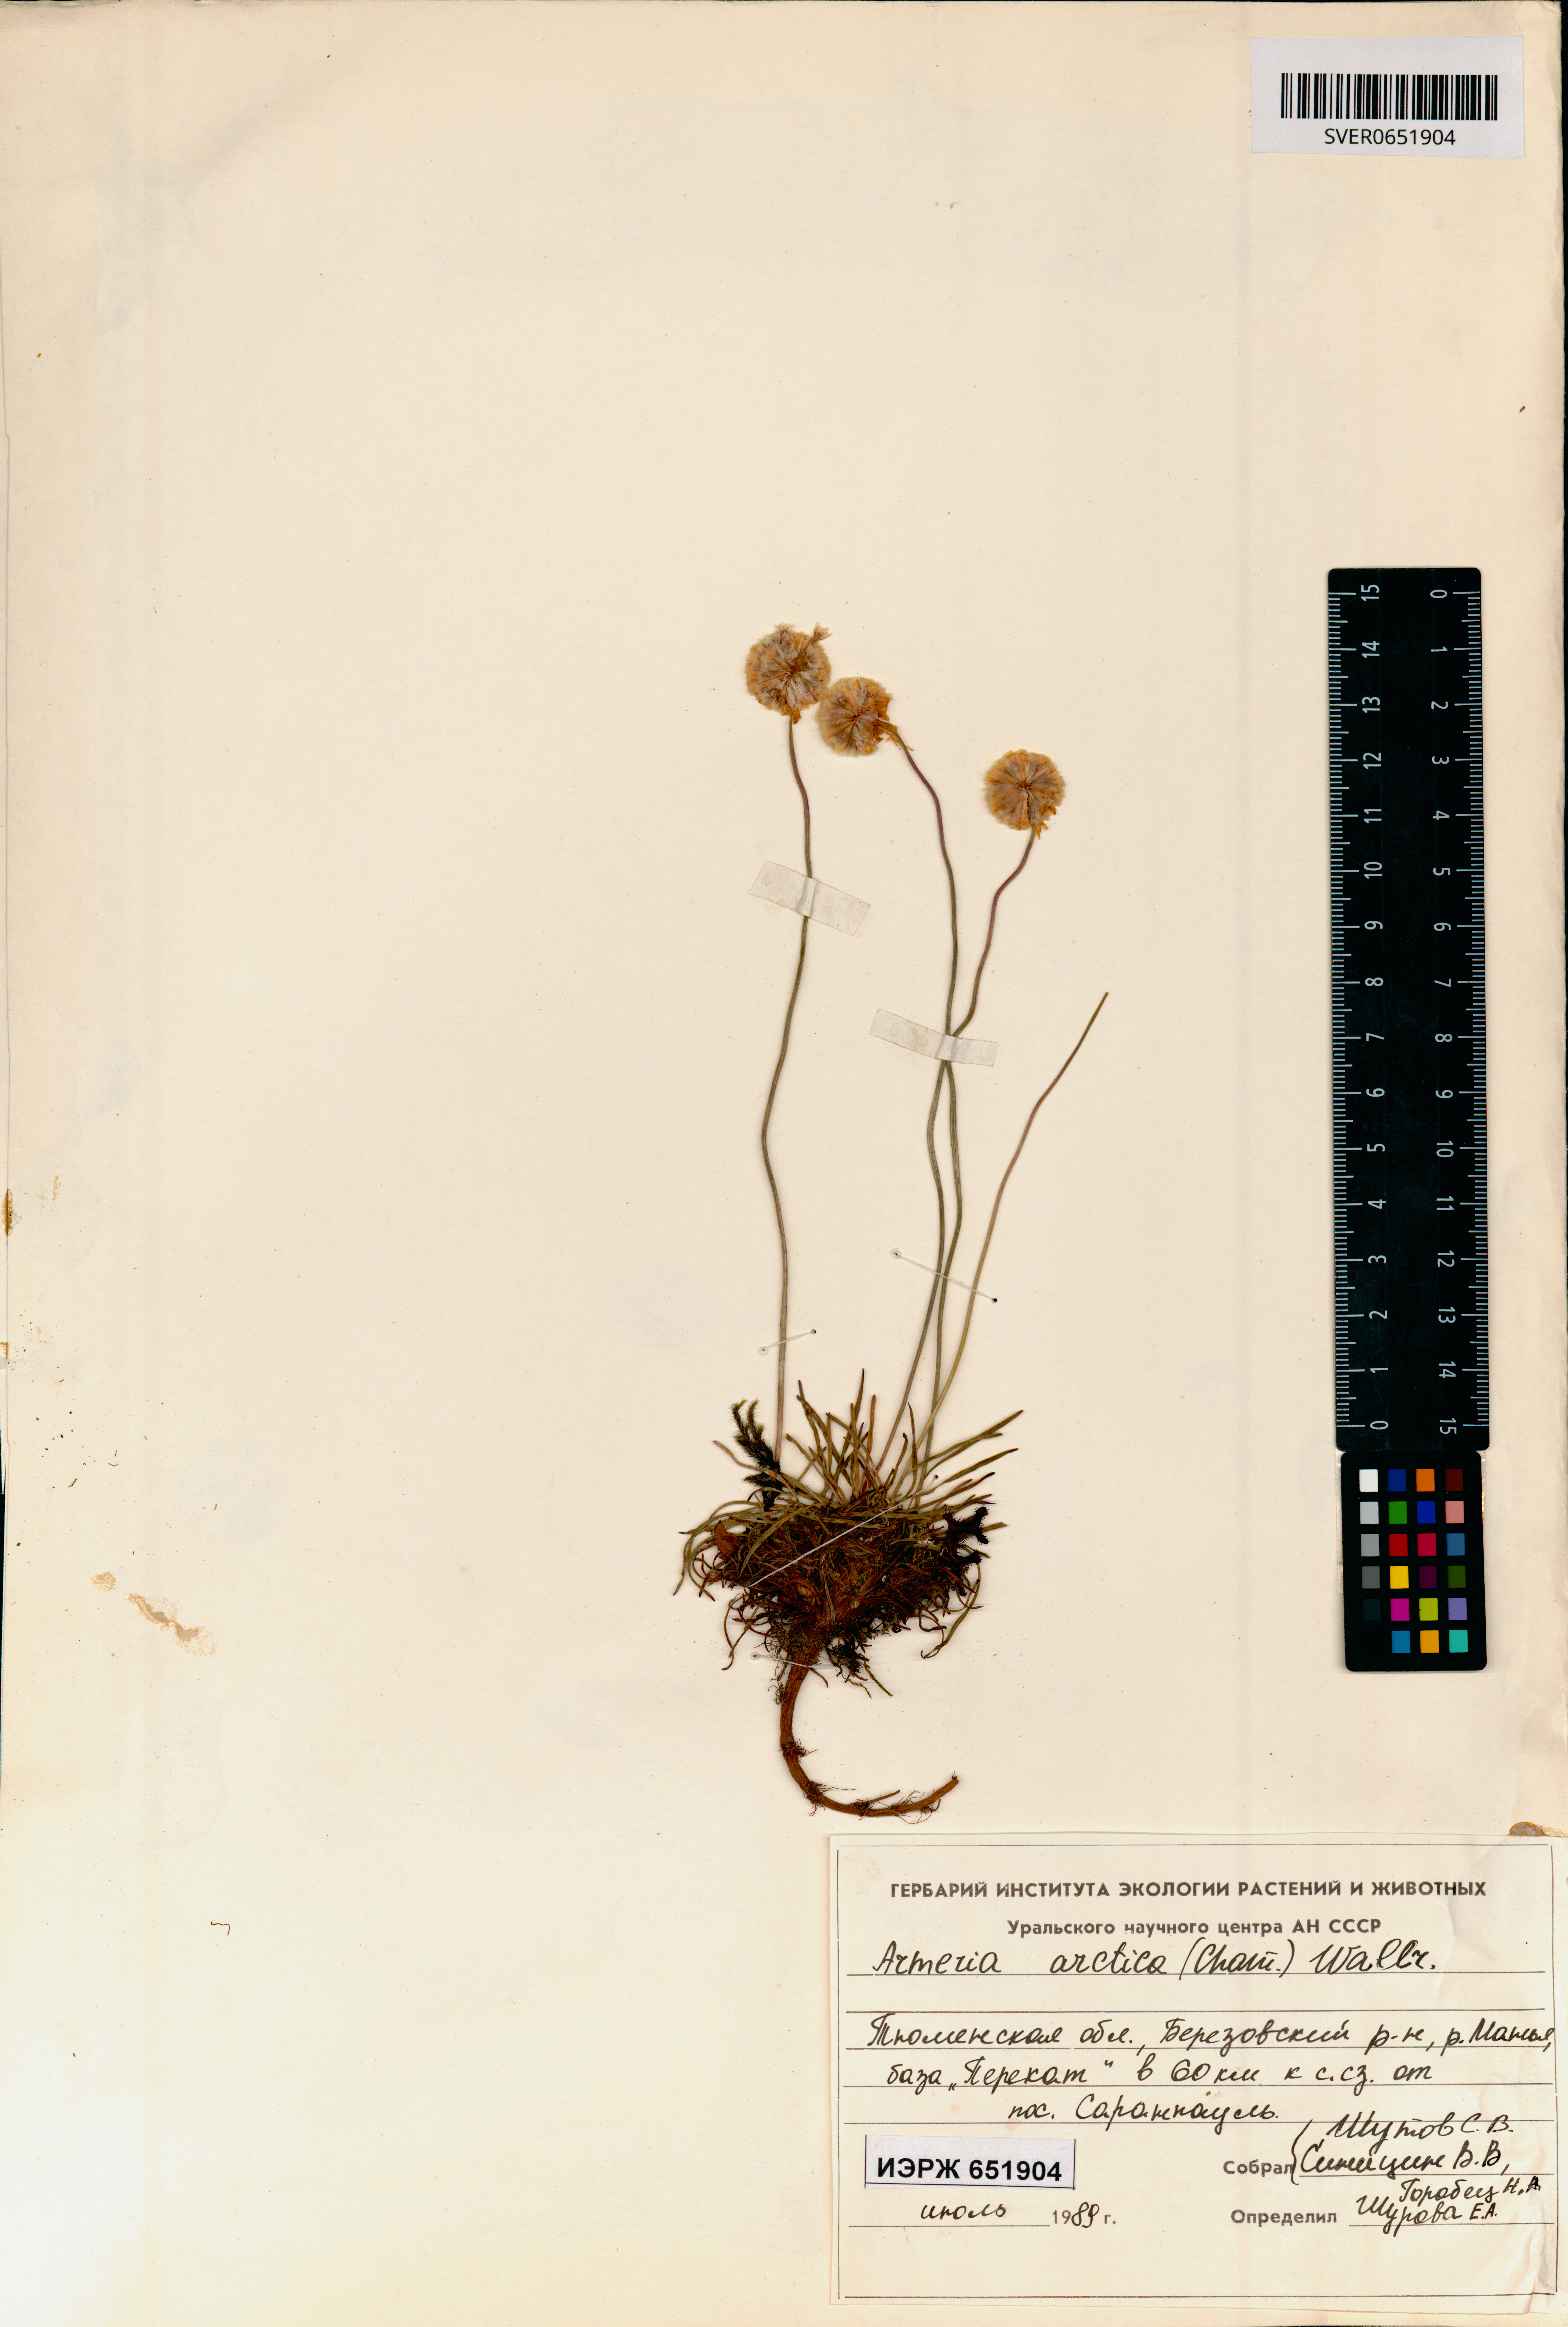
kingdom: Plantae
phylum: Tracheophyta
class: Magnoliopsida
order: Caryophyllales
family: Plumbaginaceae
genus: Armeria
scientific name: Armeria maritima
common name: Thrift
